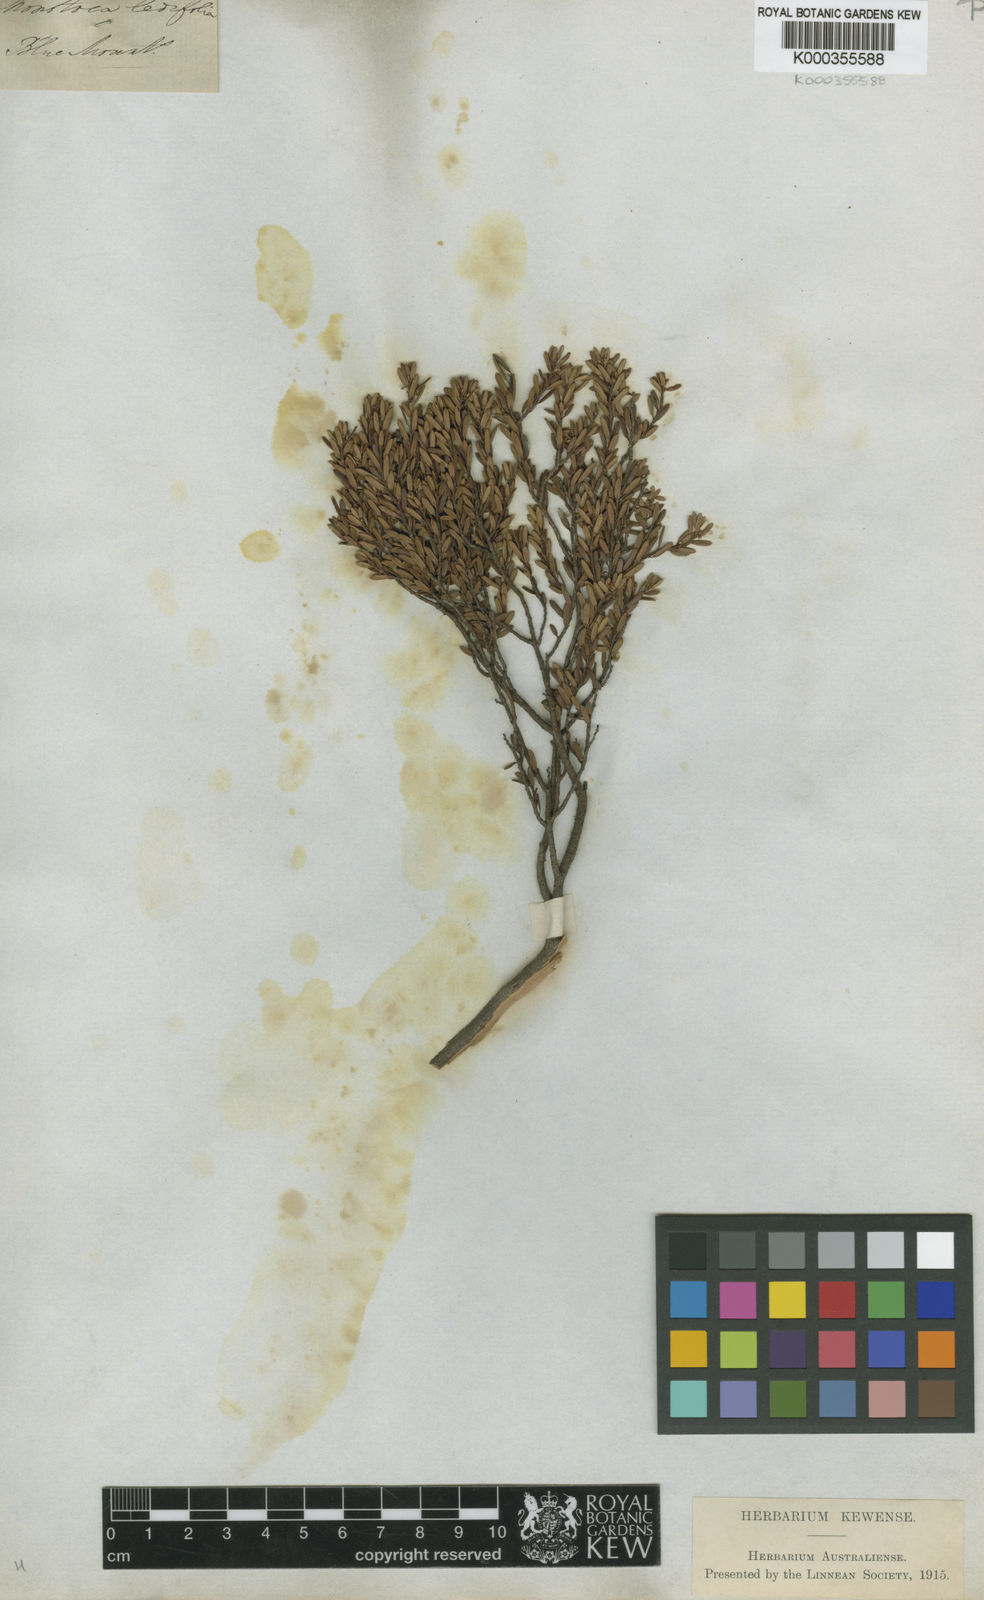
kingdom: Plantae
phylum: Tracheophyta
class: Magnoliopsida
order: Ericales
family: Ericaceae
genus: Monotoca
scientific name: Monotoca ledifolia
